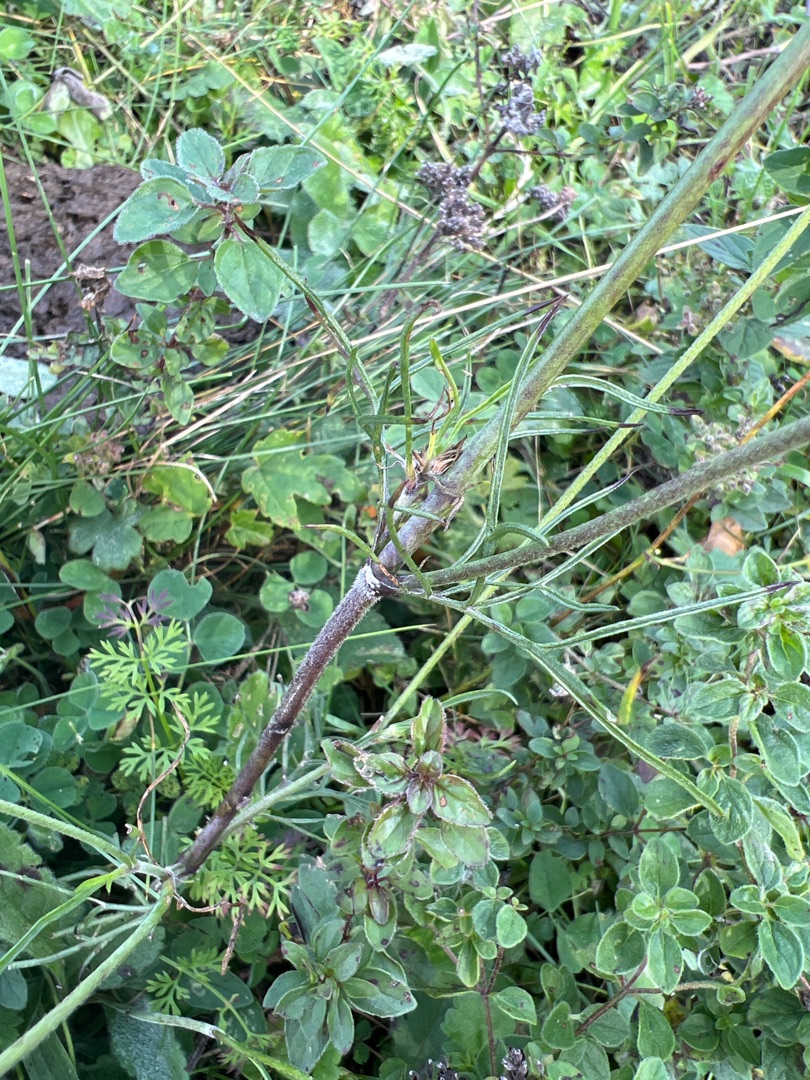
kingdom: Plantae
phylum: Tracheophyta
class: Magnoliopsida
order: Dipsacales
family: Caprifoliaceae
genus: Scabiosa
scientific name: Scabiosa columbaria
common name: Due-skabiose
